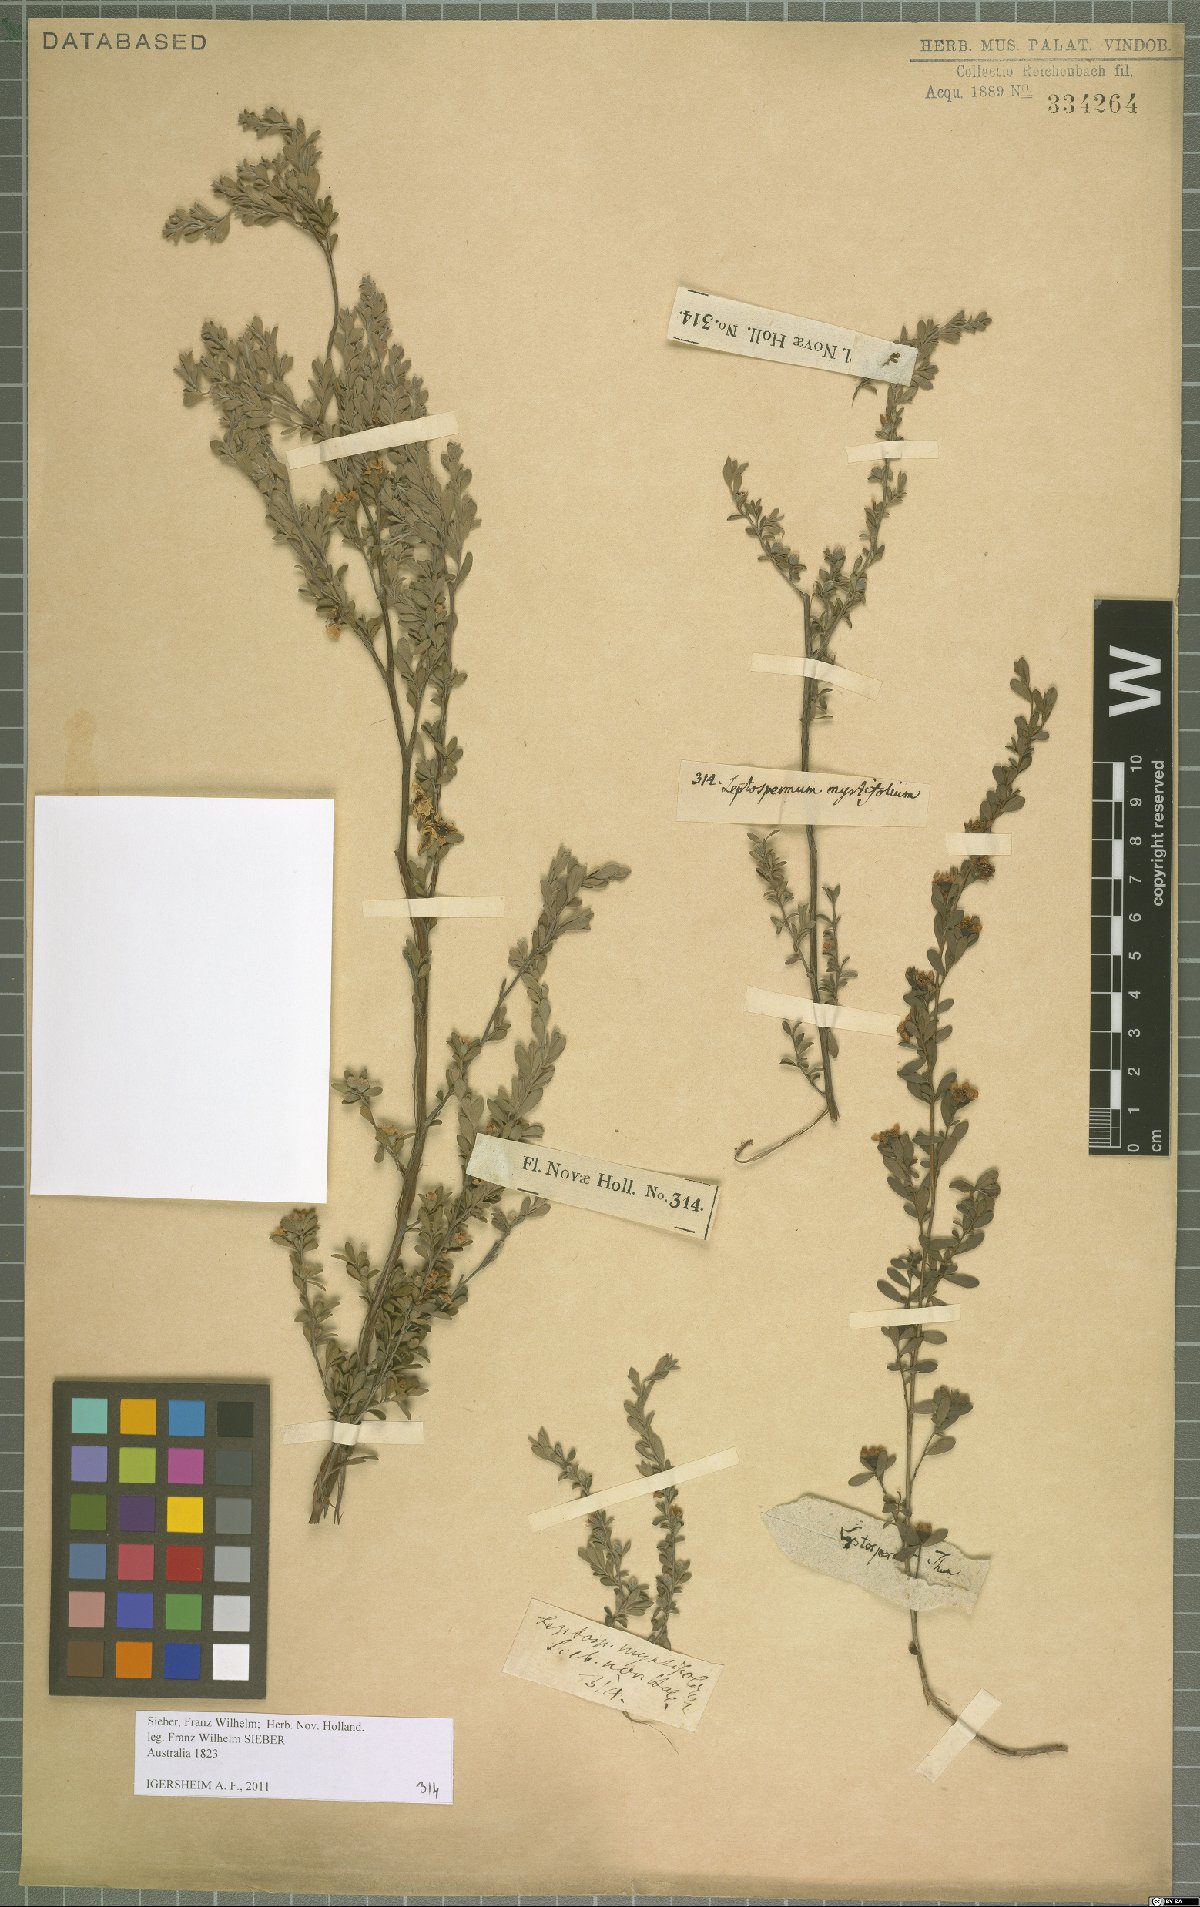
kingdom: Plantae
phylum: Tracheophyta
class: Magnoliopsida
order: Myrtales
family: Myrtaceae
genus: Leptospermum
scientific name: Leptospermum myrtifolium
